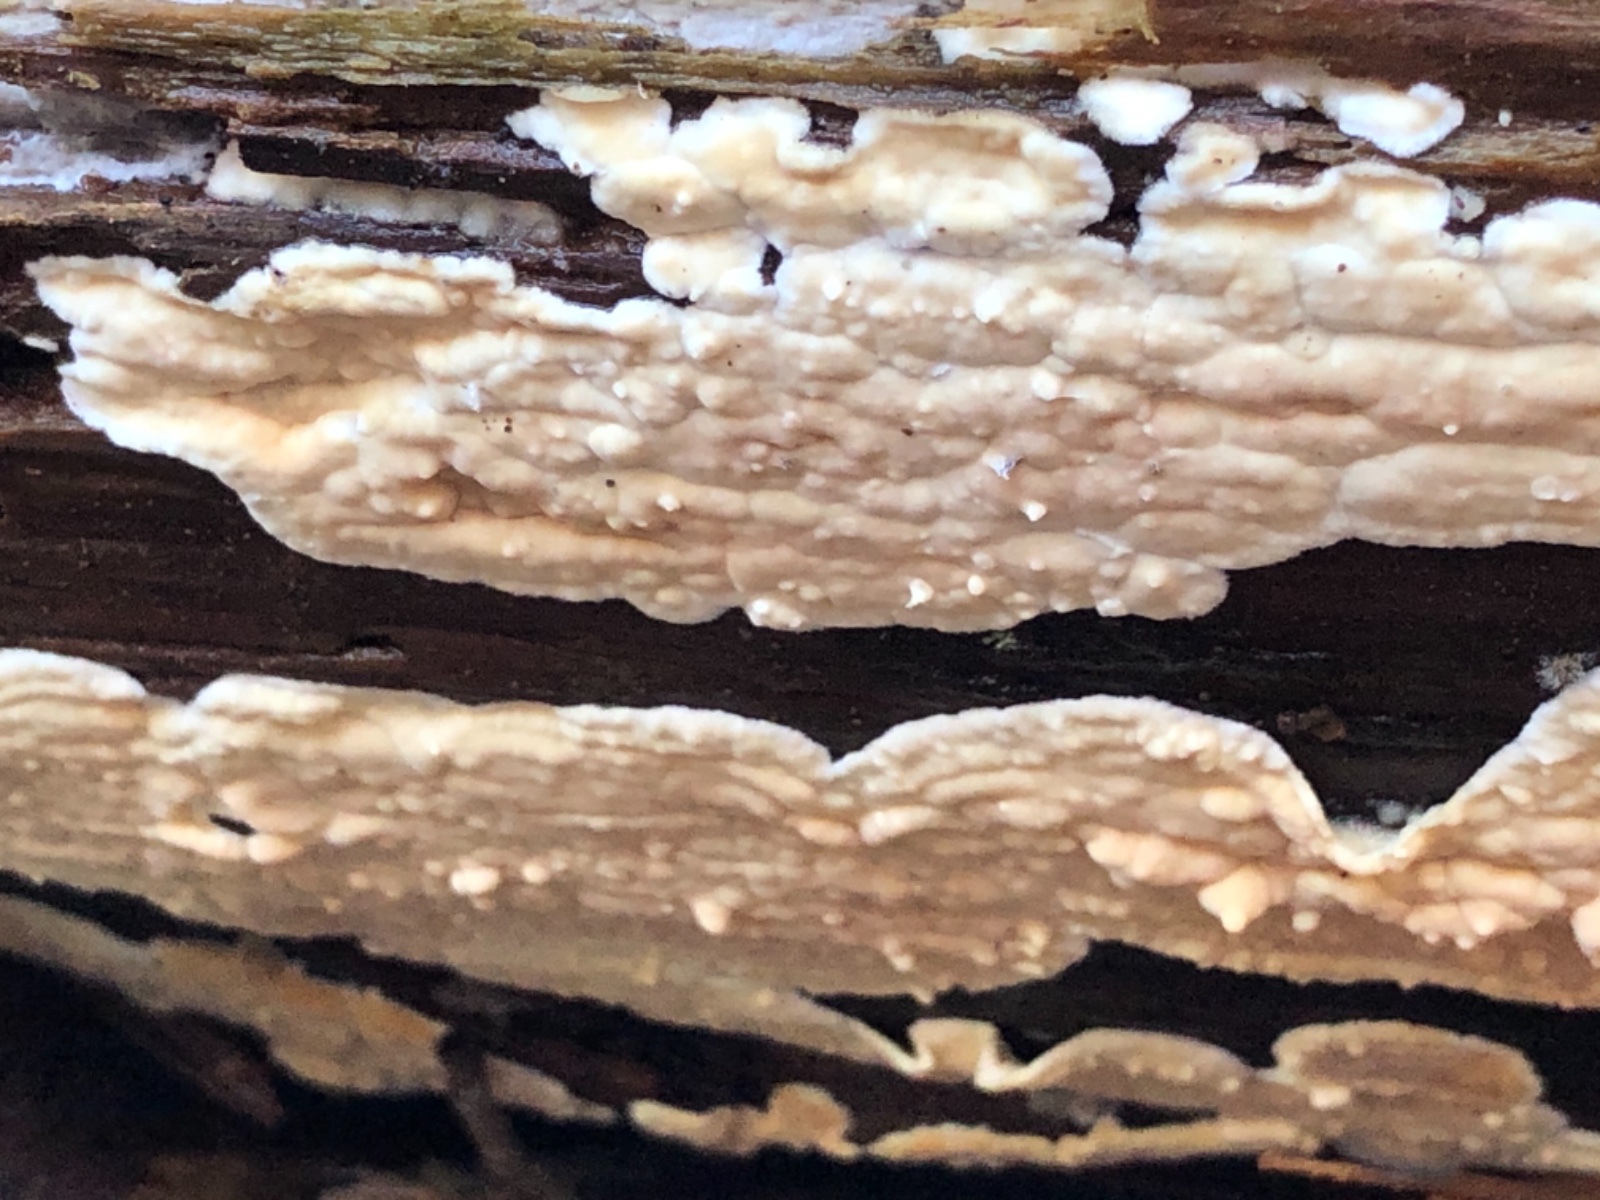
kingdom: Fungi
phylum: Basidiomycota
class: Agaricomycetes
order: Polyporales
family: Dacryobolaceae
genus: Dacryobolus
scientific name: Dacryobolus karstenii
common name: glat vulkanskorpe
